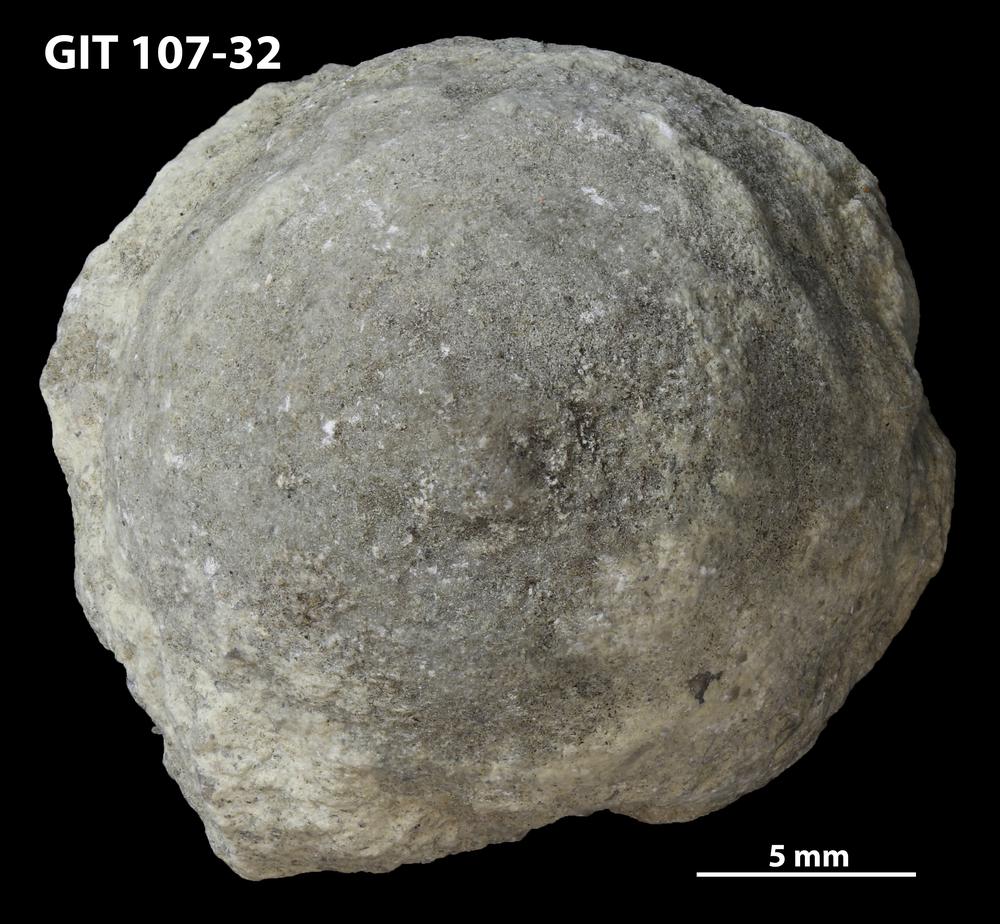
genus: Amphorichnus
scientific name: Amphorichnus
